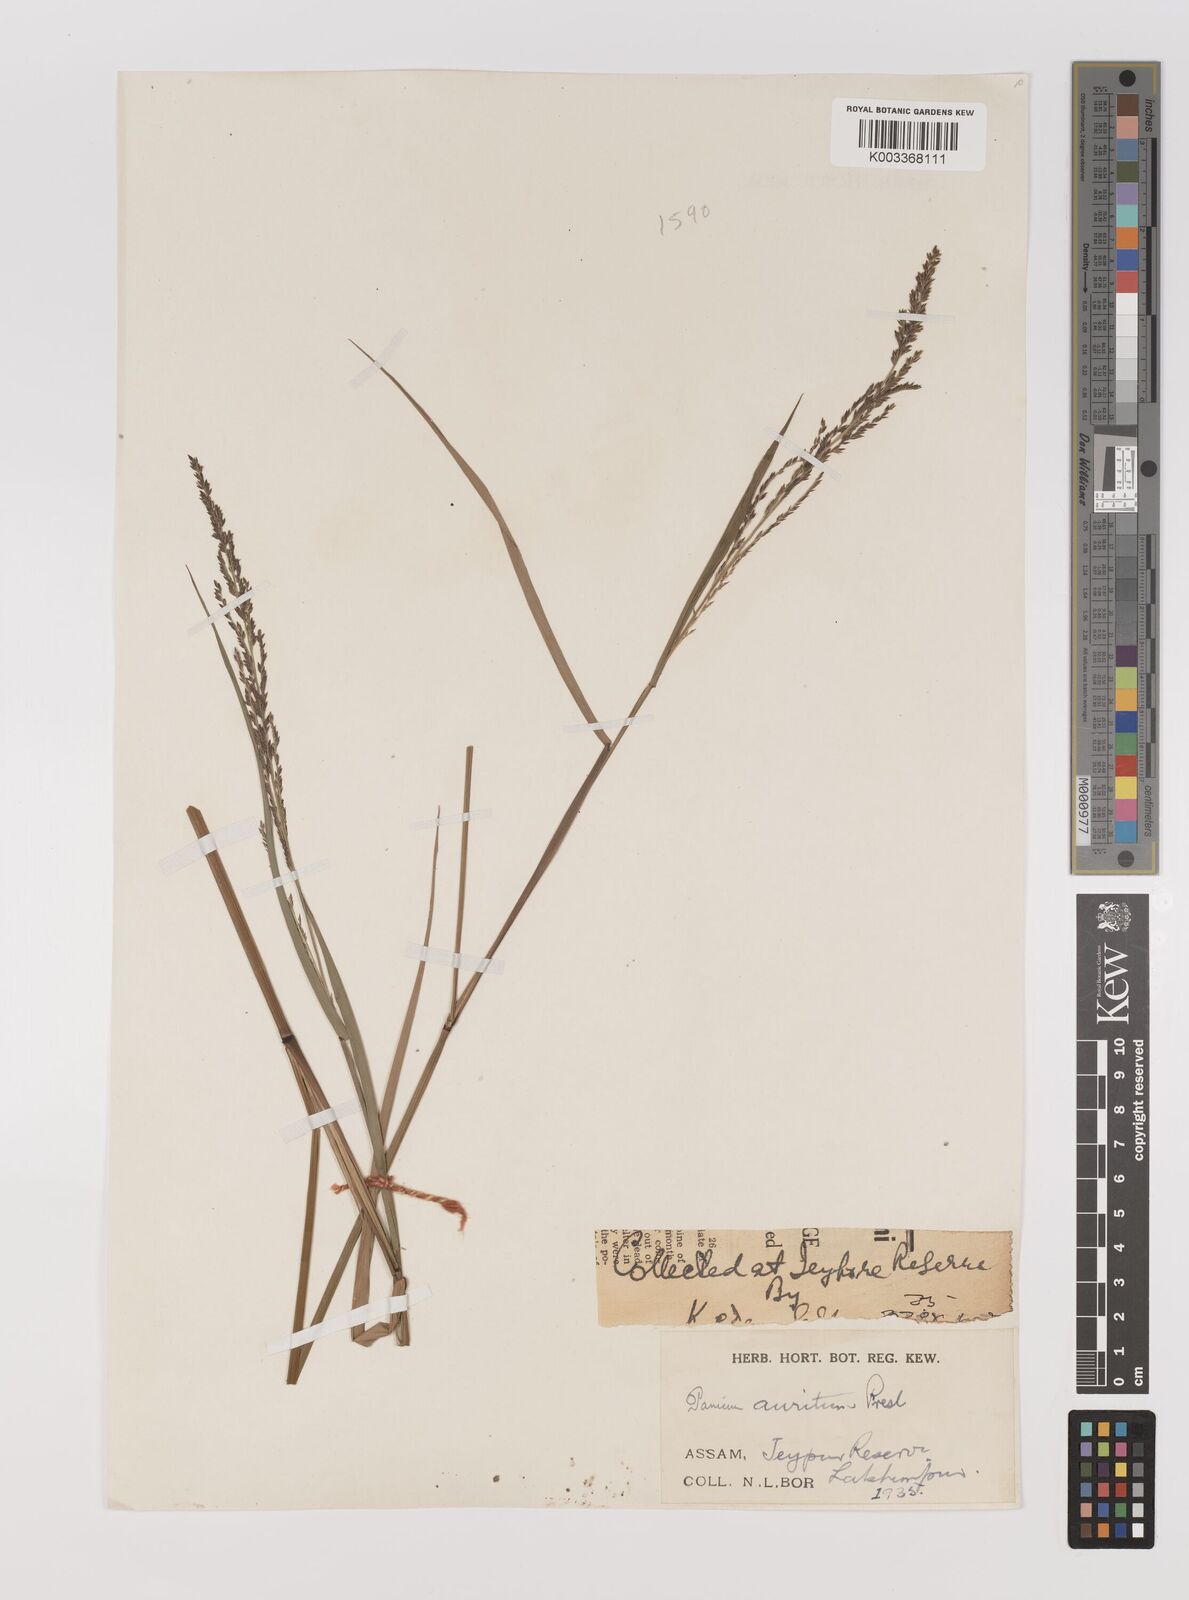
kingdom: Plantae
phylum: Tracheophyta
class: Liliopsida
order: Poales
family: Poaceae
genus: Hymenachne
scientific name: Hymenachne aurita
